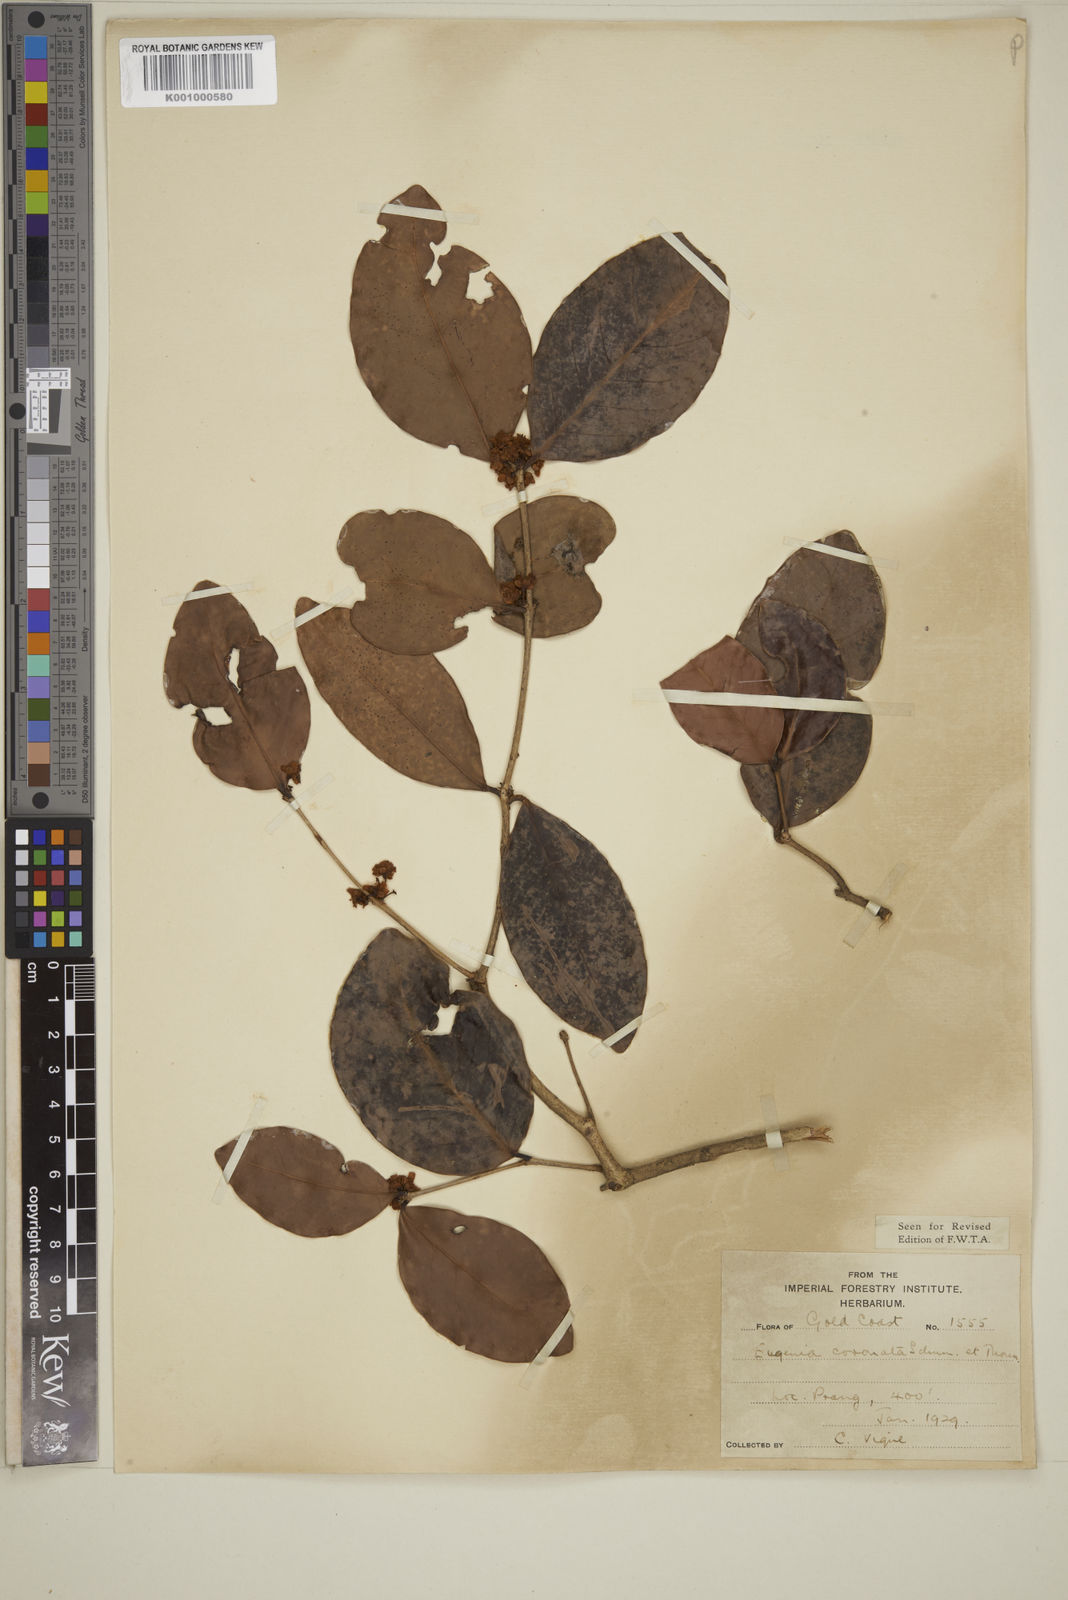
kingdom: Plantae
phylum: Tracheophyta
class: Magnoliopsida
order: Myrtales
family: Myrtaceae
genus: Eugenia
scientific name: Eugenia coronata
